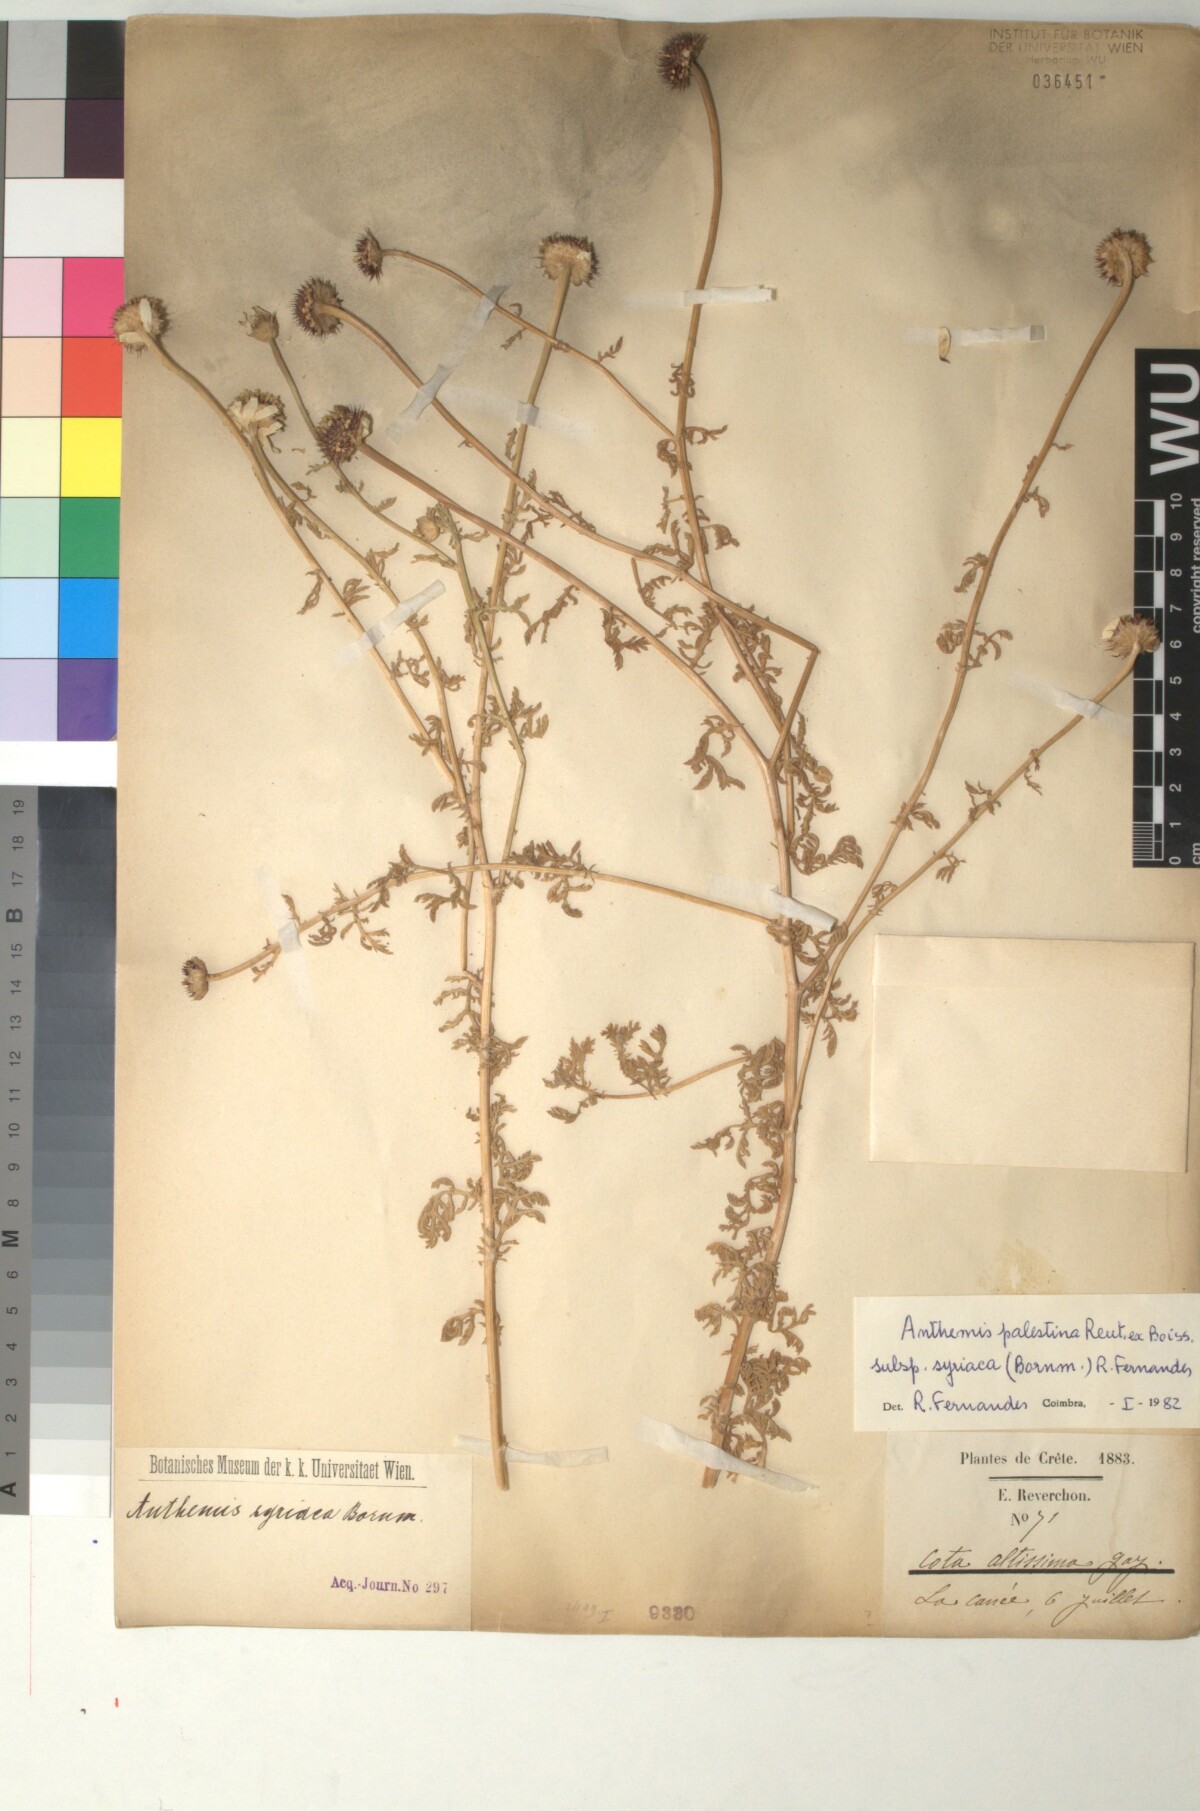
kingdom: Plantae
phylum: Tracheophyta
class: Magnoliopsida
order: Asterales
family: Asteraceae
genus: Cota
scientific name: Cota palaestina
